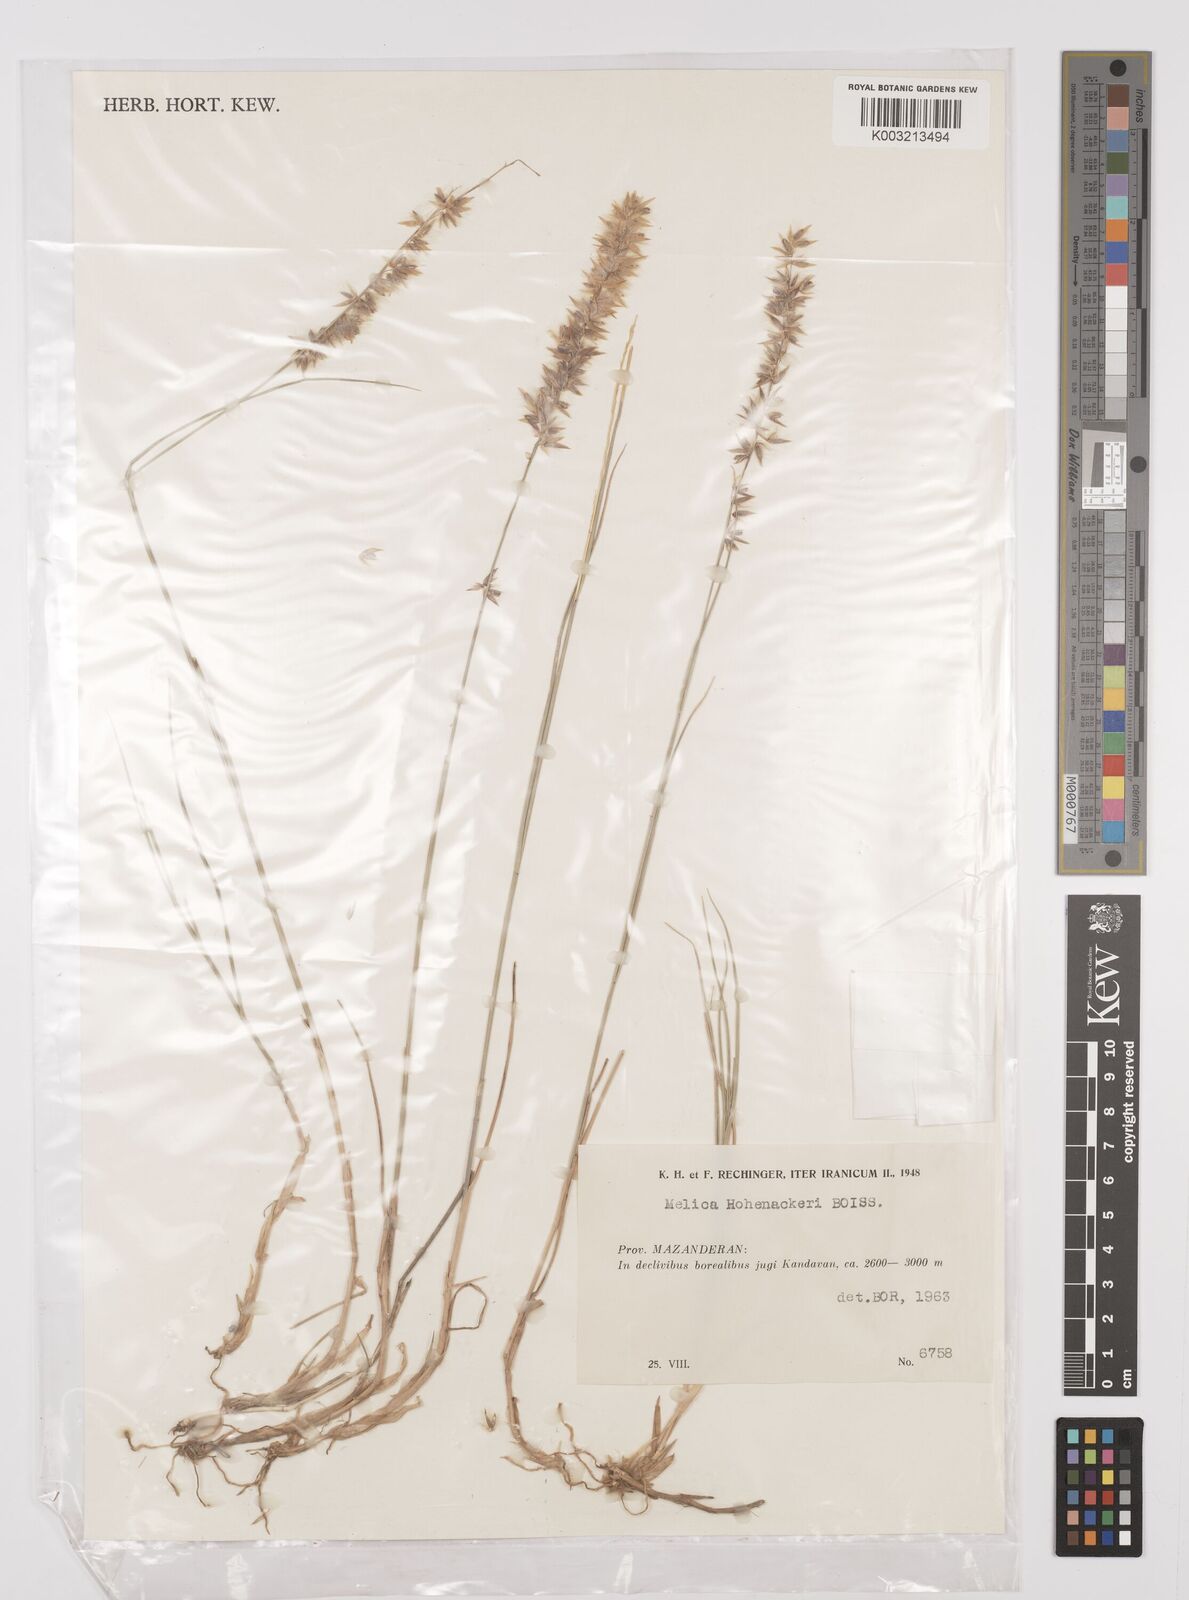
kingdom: Plantae
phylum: Tracheophyta
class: Liliopsida
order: Poales
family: Poaceae
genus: Melica
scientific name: Melica persica
